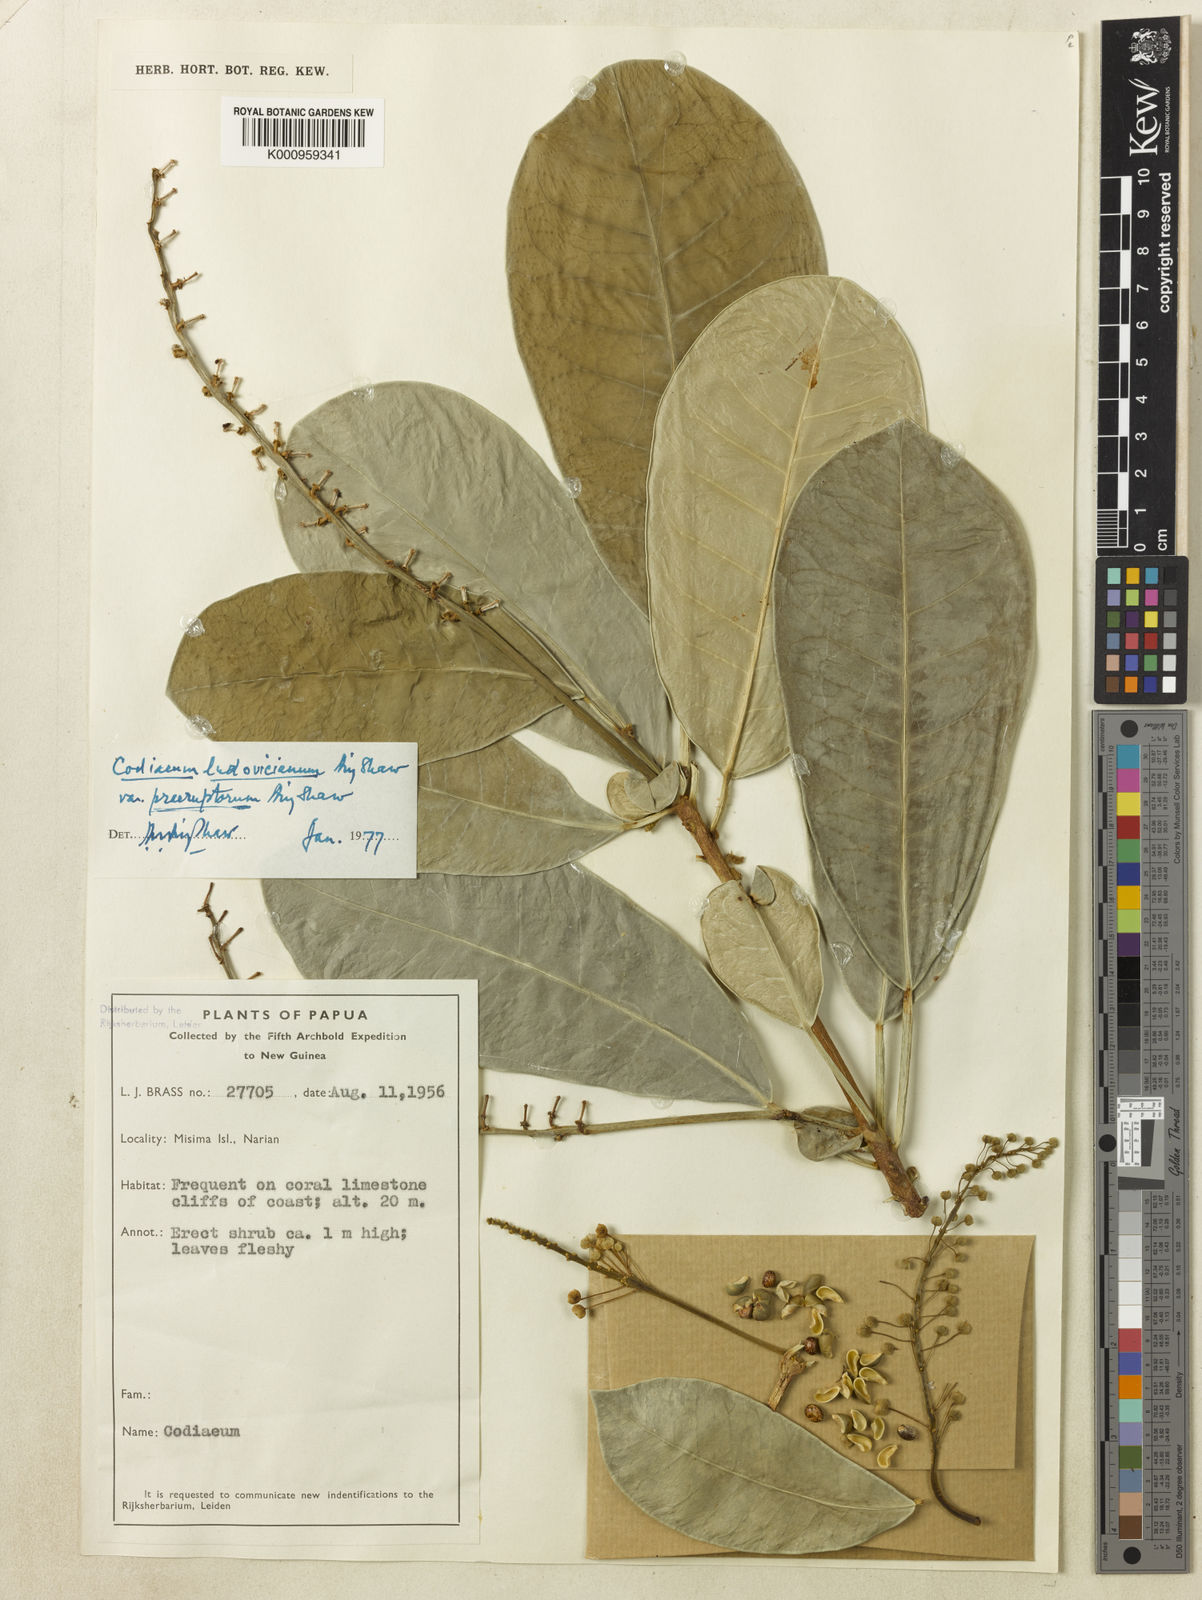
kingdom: Plantae
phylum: Tracheophyta
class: Magnoliopsida
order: Malpighiales
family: Euphorbiaceae
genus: Codiaeum
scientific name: Codiaeum ludovicianum
